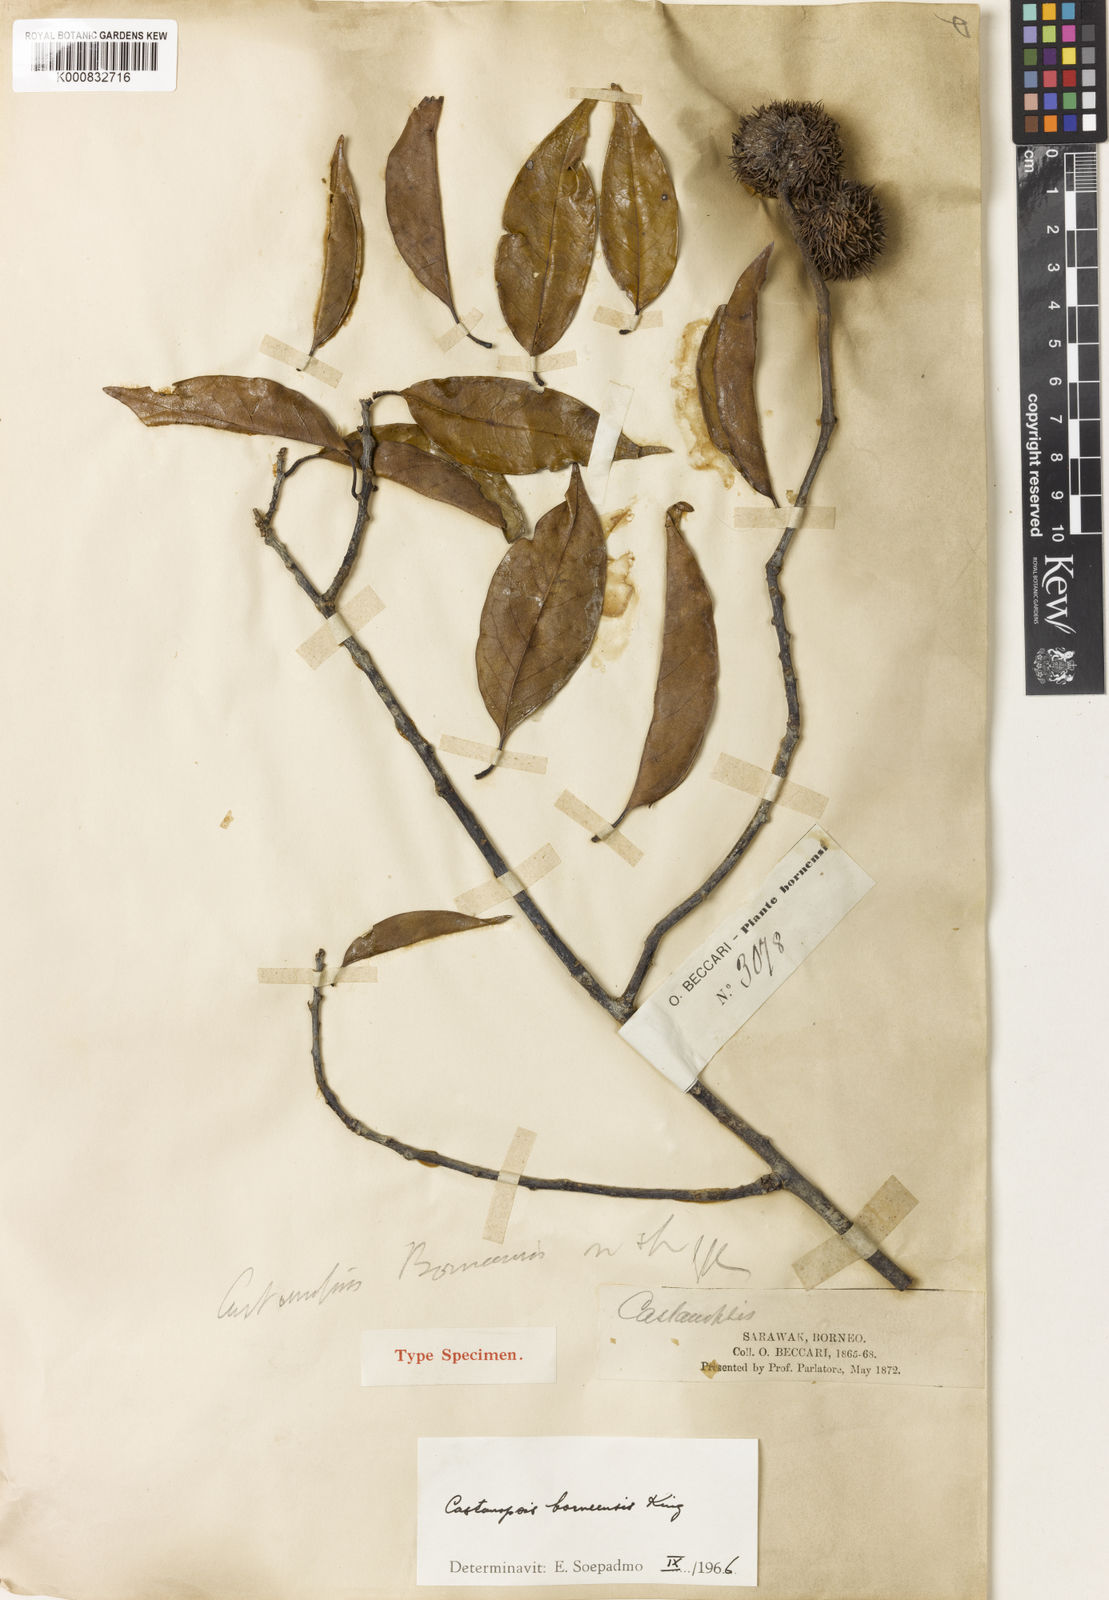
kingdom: Plantae
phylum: Tracheophyta
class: Magnoliopsida
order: Fagales
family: Fagaceae
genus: Castanopsis
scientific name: Castanopsis borneensis
